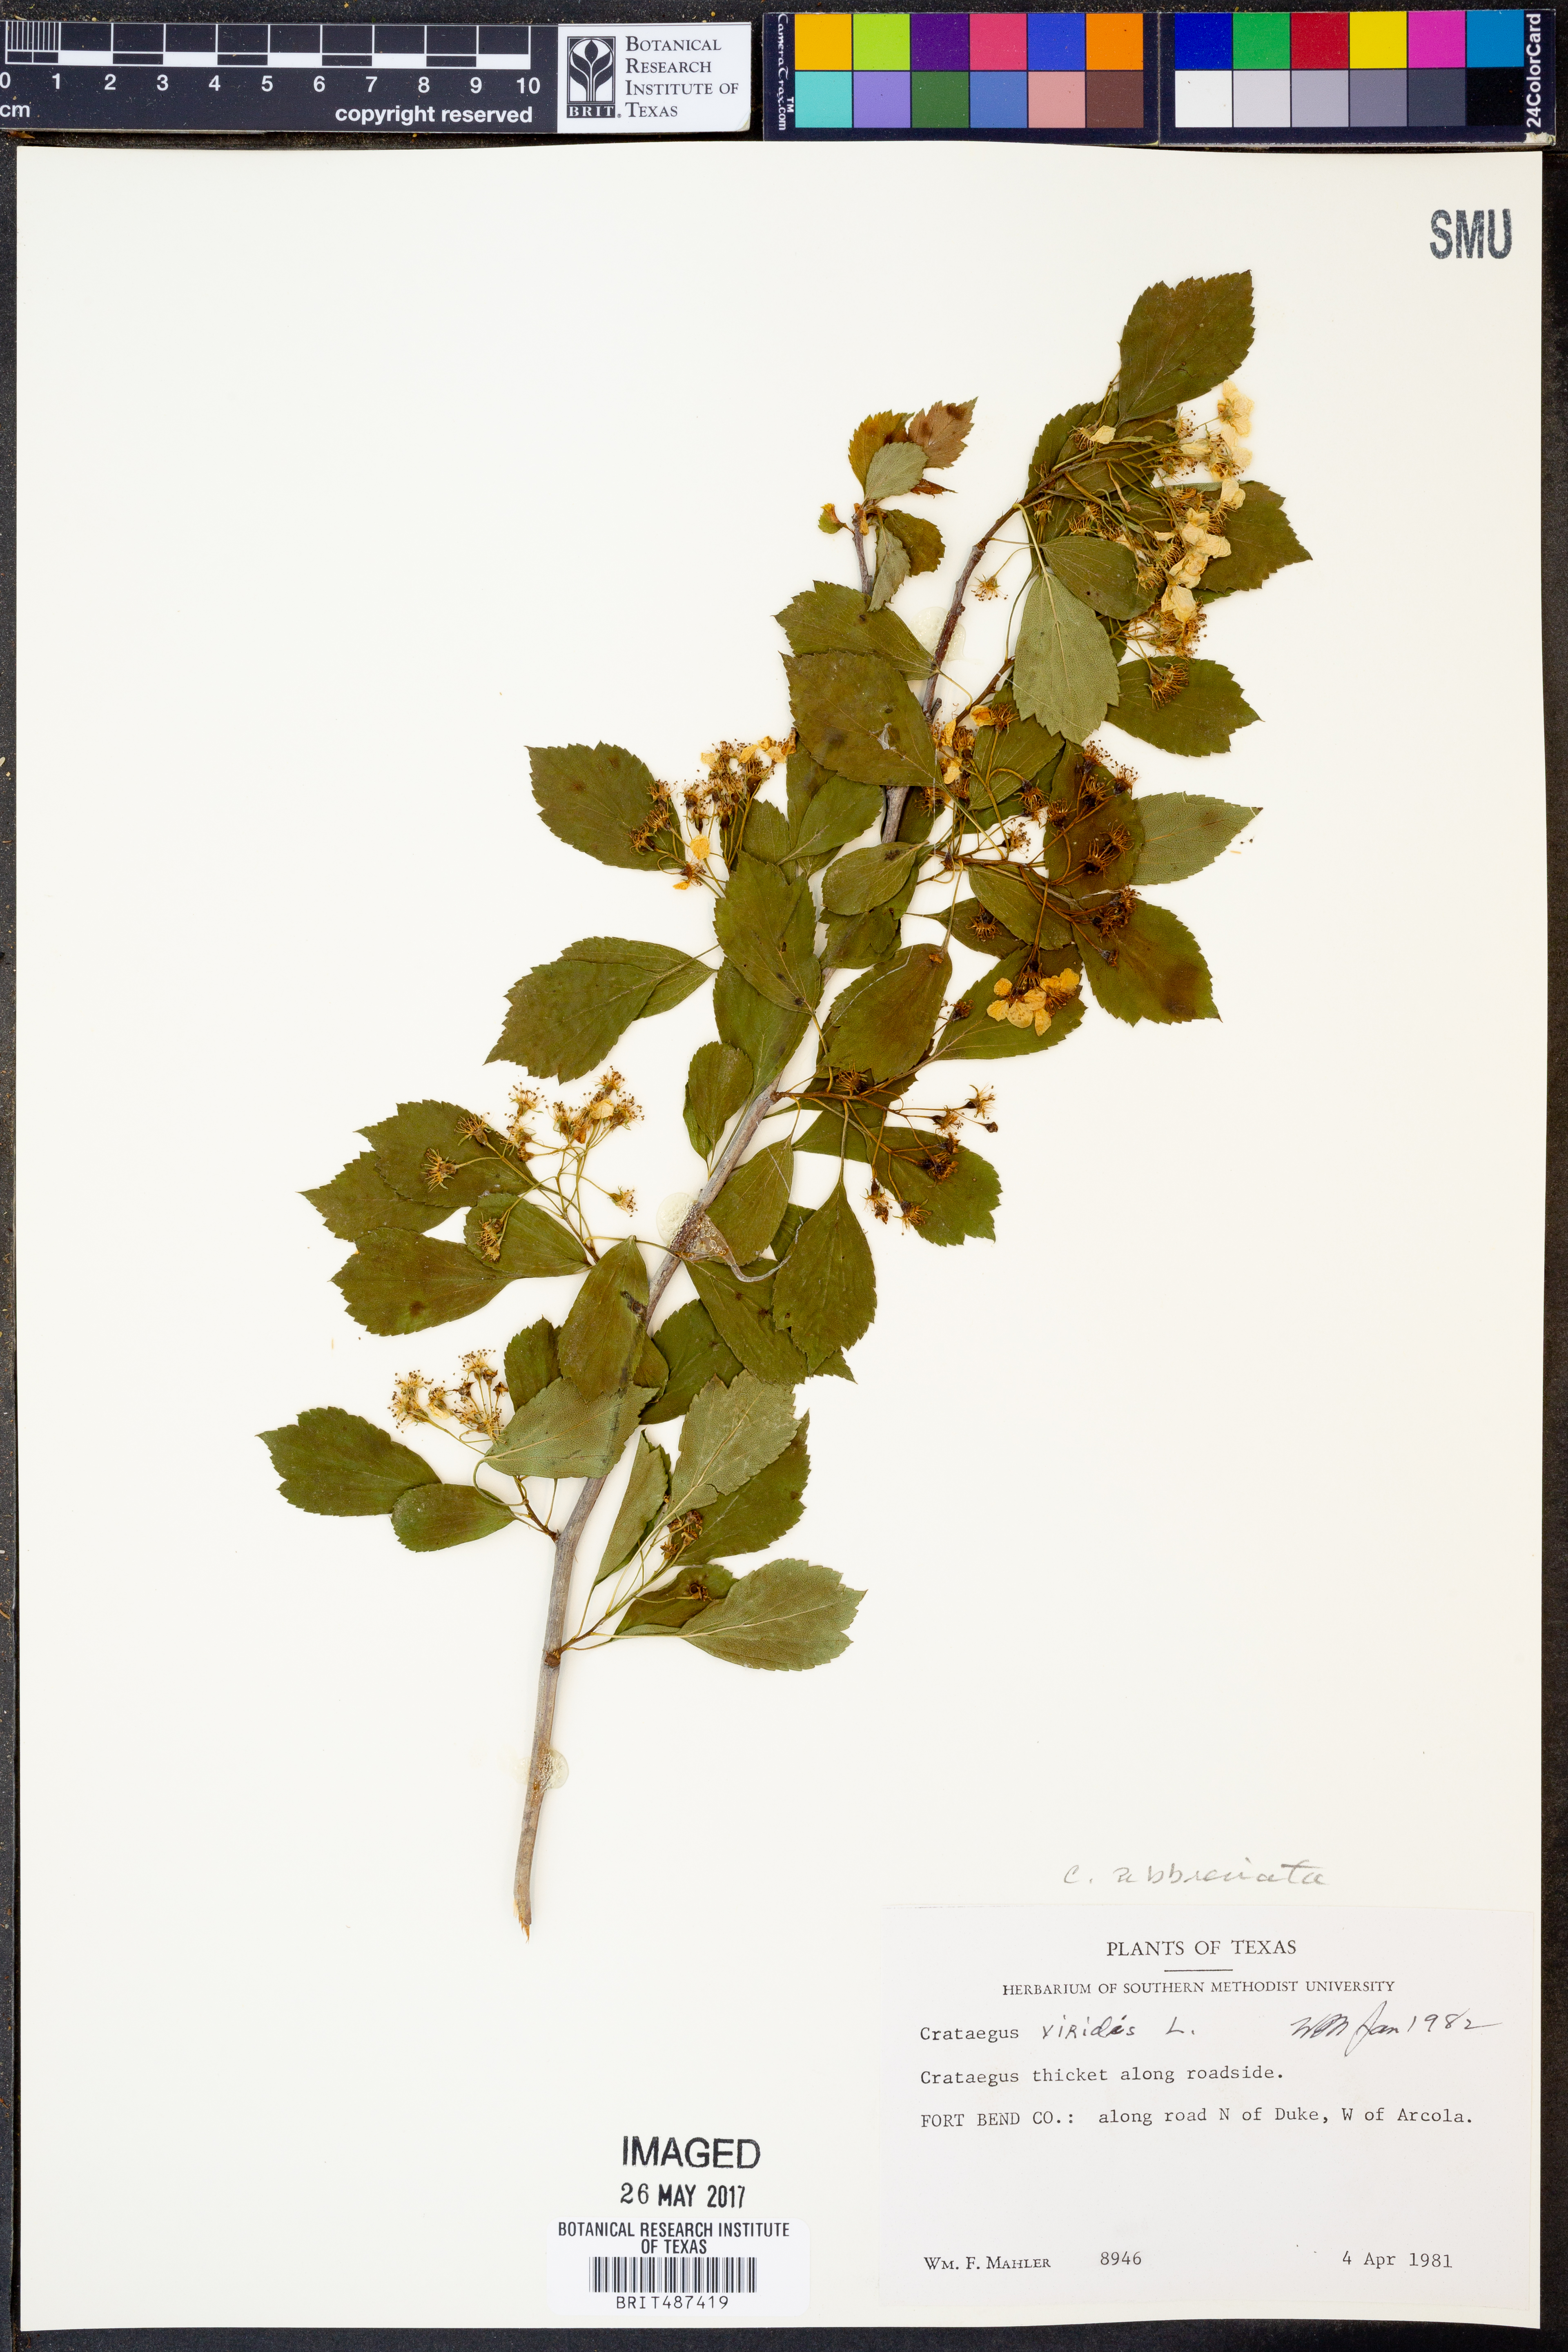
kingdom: Plantae
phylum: Tracheophyta
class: Magnoliopsida
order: Rosales
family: Rosaceae
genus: Crataegus
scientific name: Crataegus viridis
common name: Southernthorn
